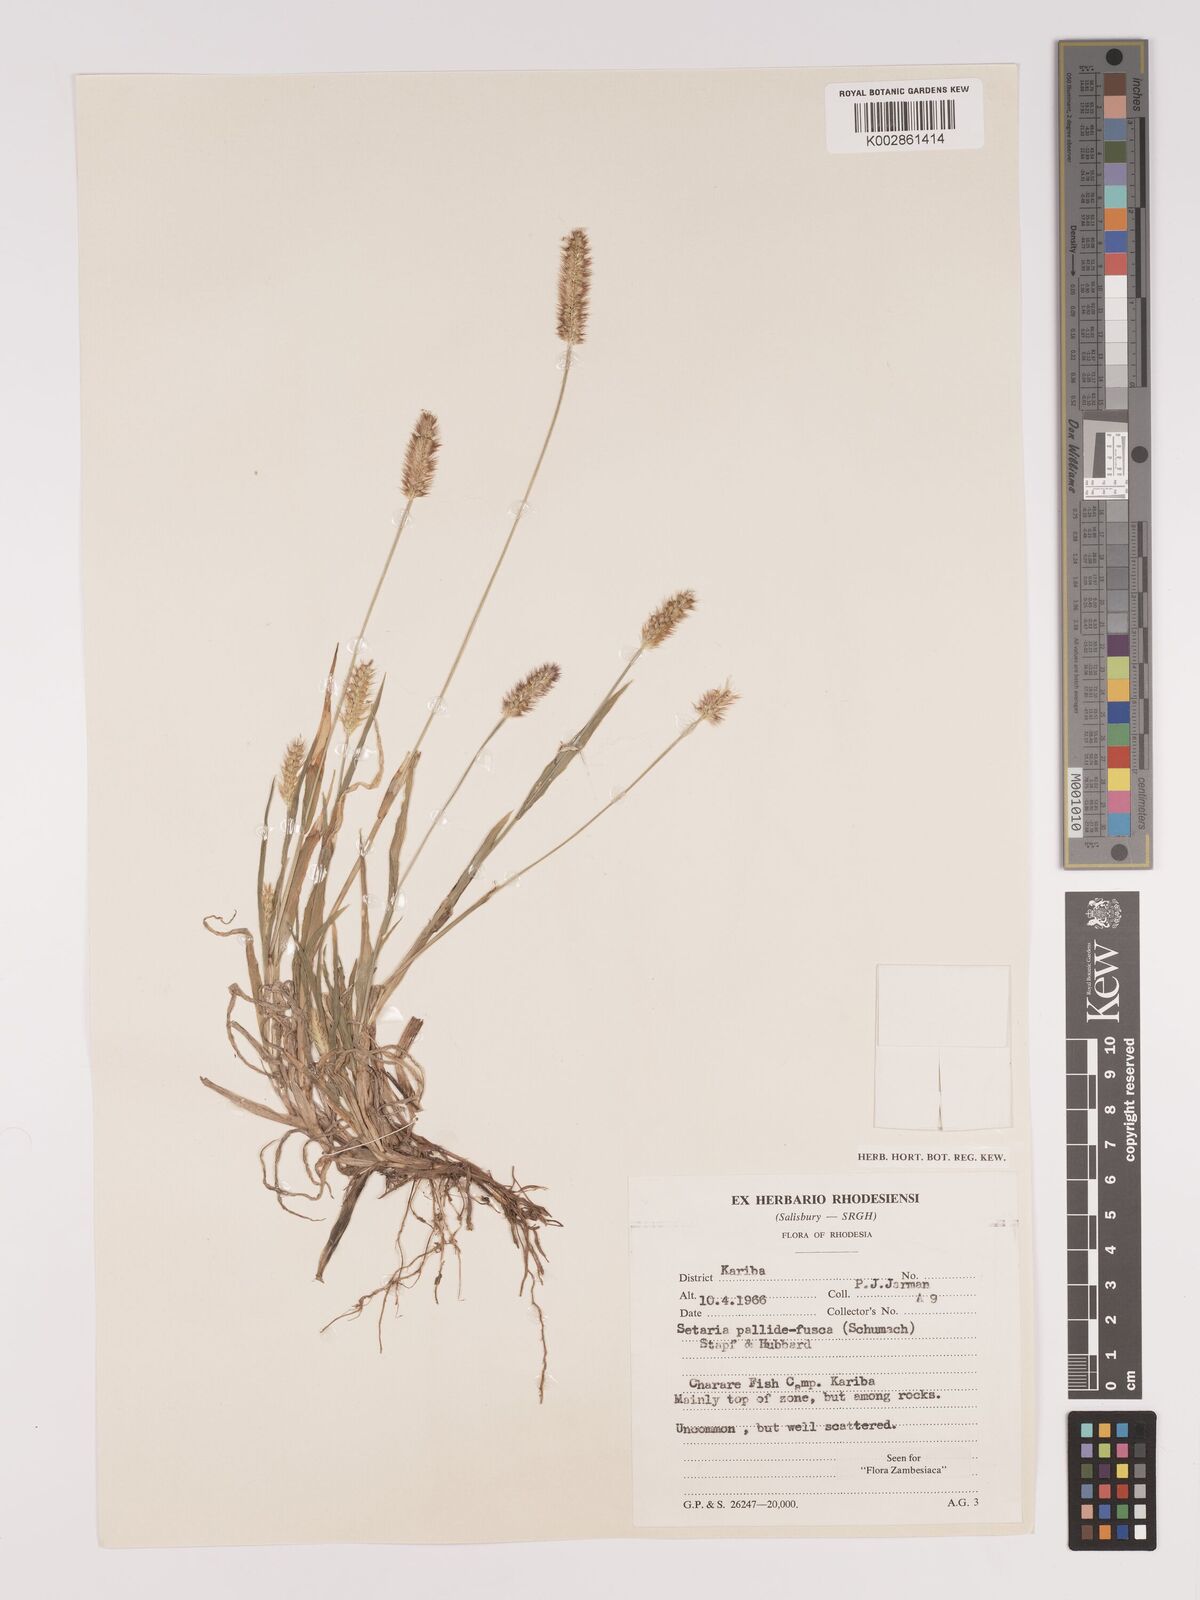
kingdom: Plantae
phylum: Tracheophyta
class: Liliopsida
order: Poales
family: Poaceae
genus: Setaria
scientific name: Setaria pumila
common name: Yellow bristle-grass
